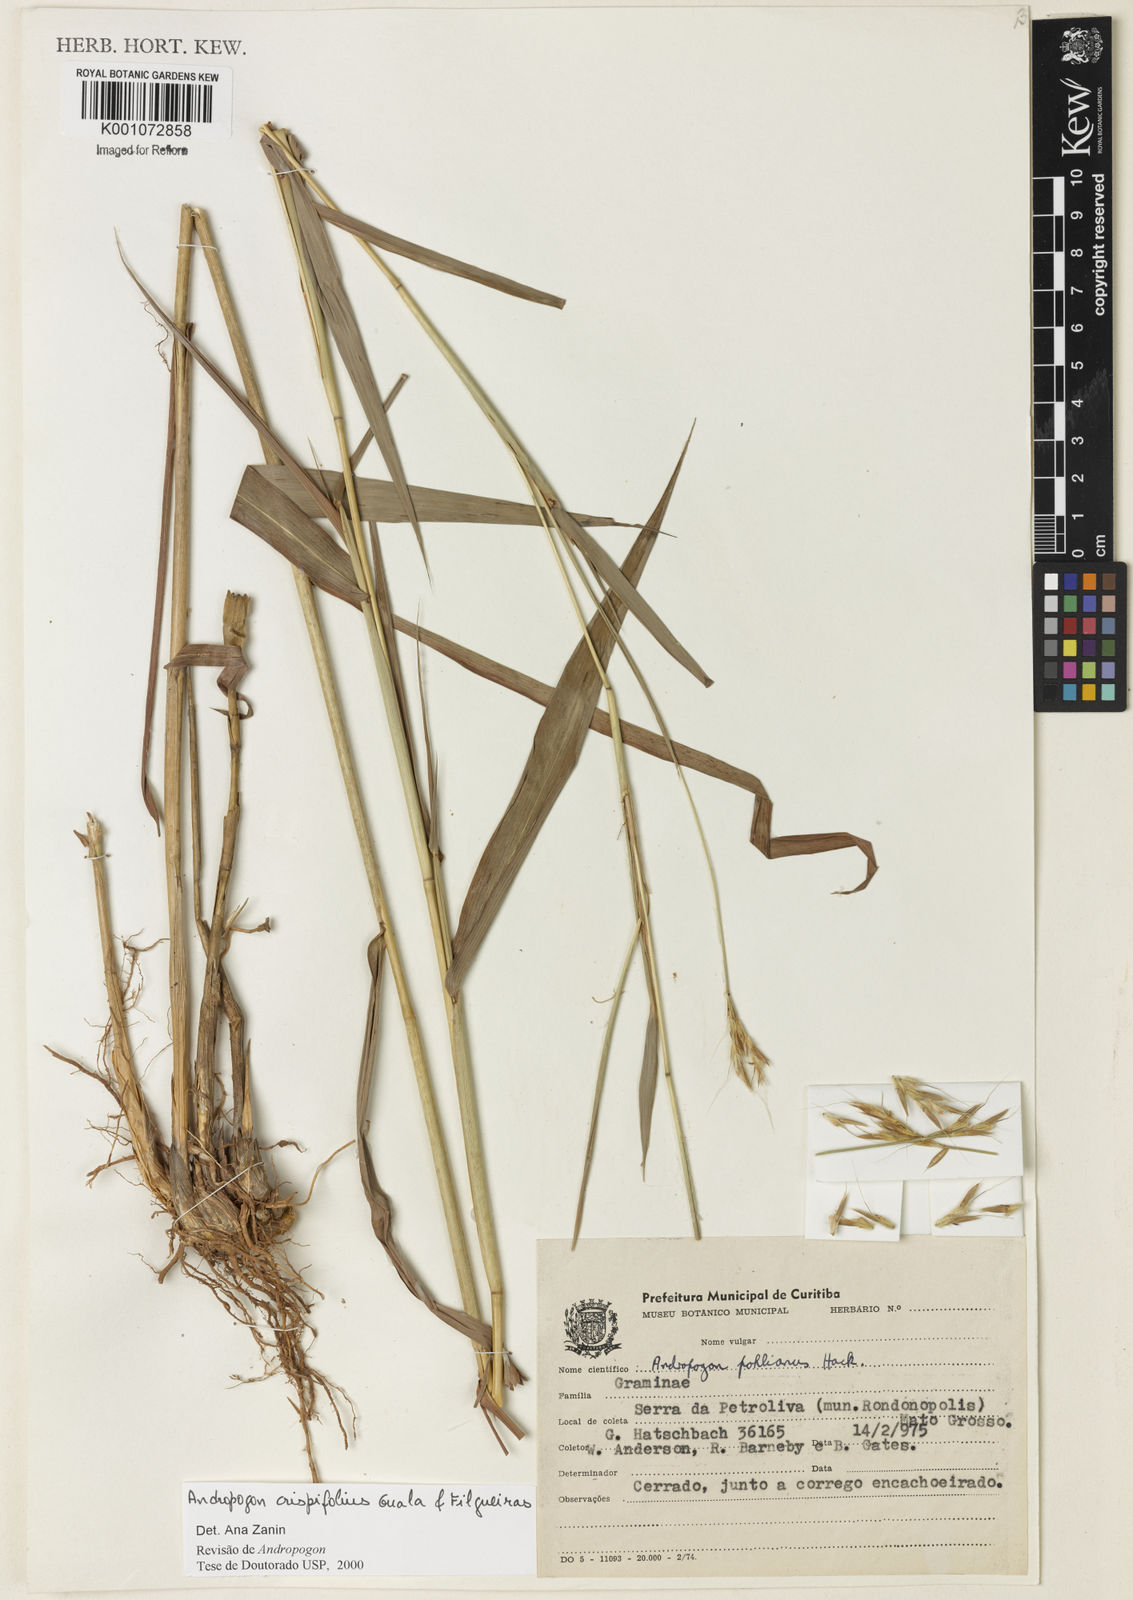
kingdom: Plantae
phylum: Tracheophyta
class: Liliopsida
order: Poales
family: Poaceae
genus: Andropogon
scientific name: Andropogon pohlianus
